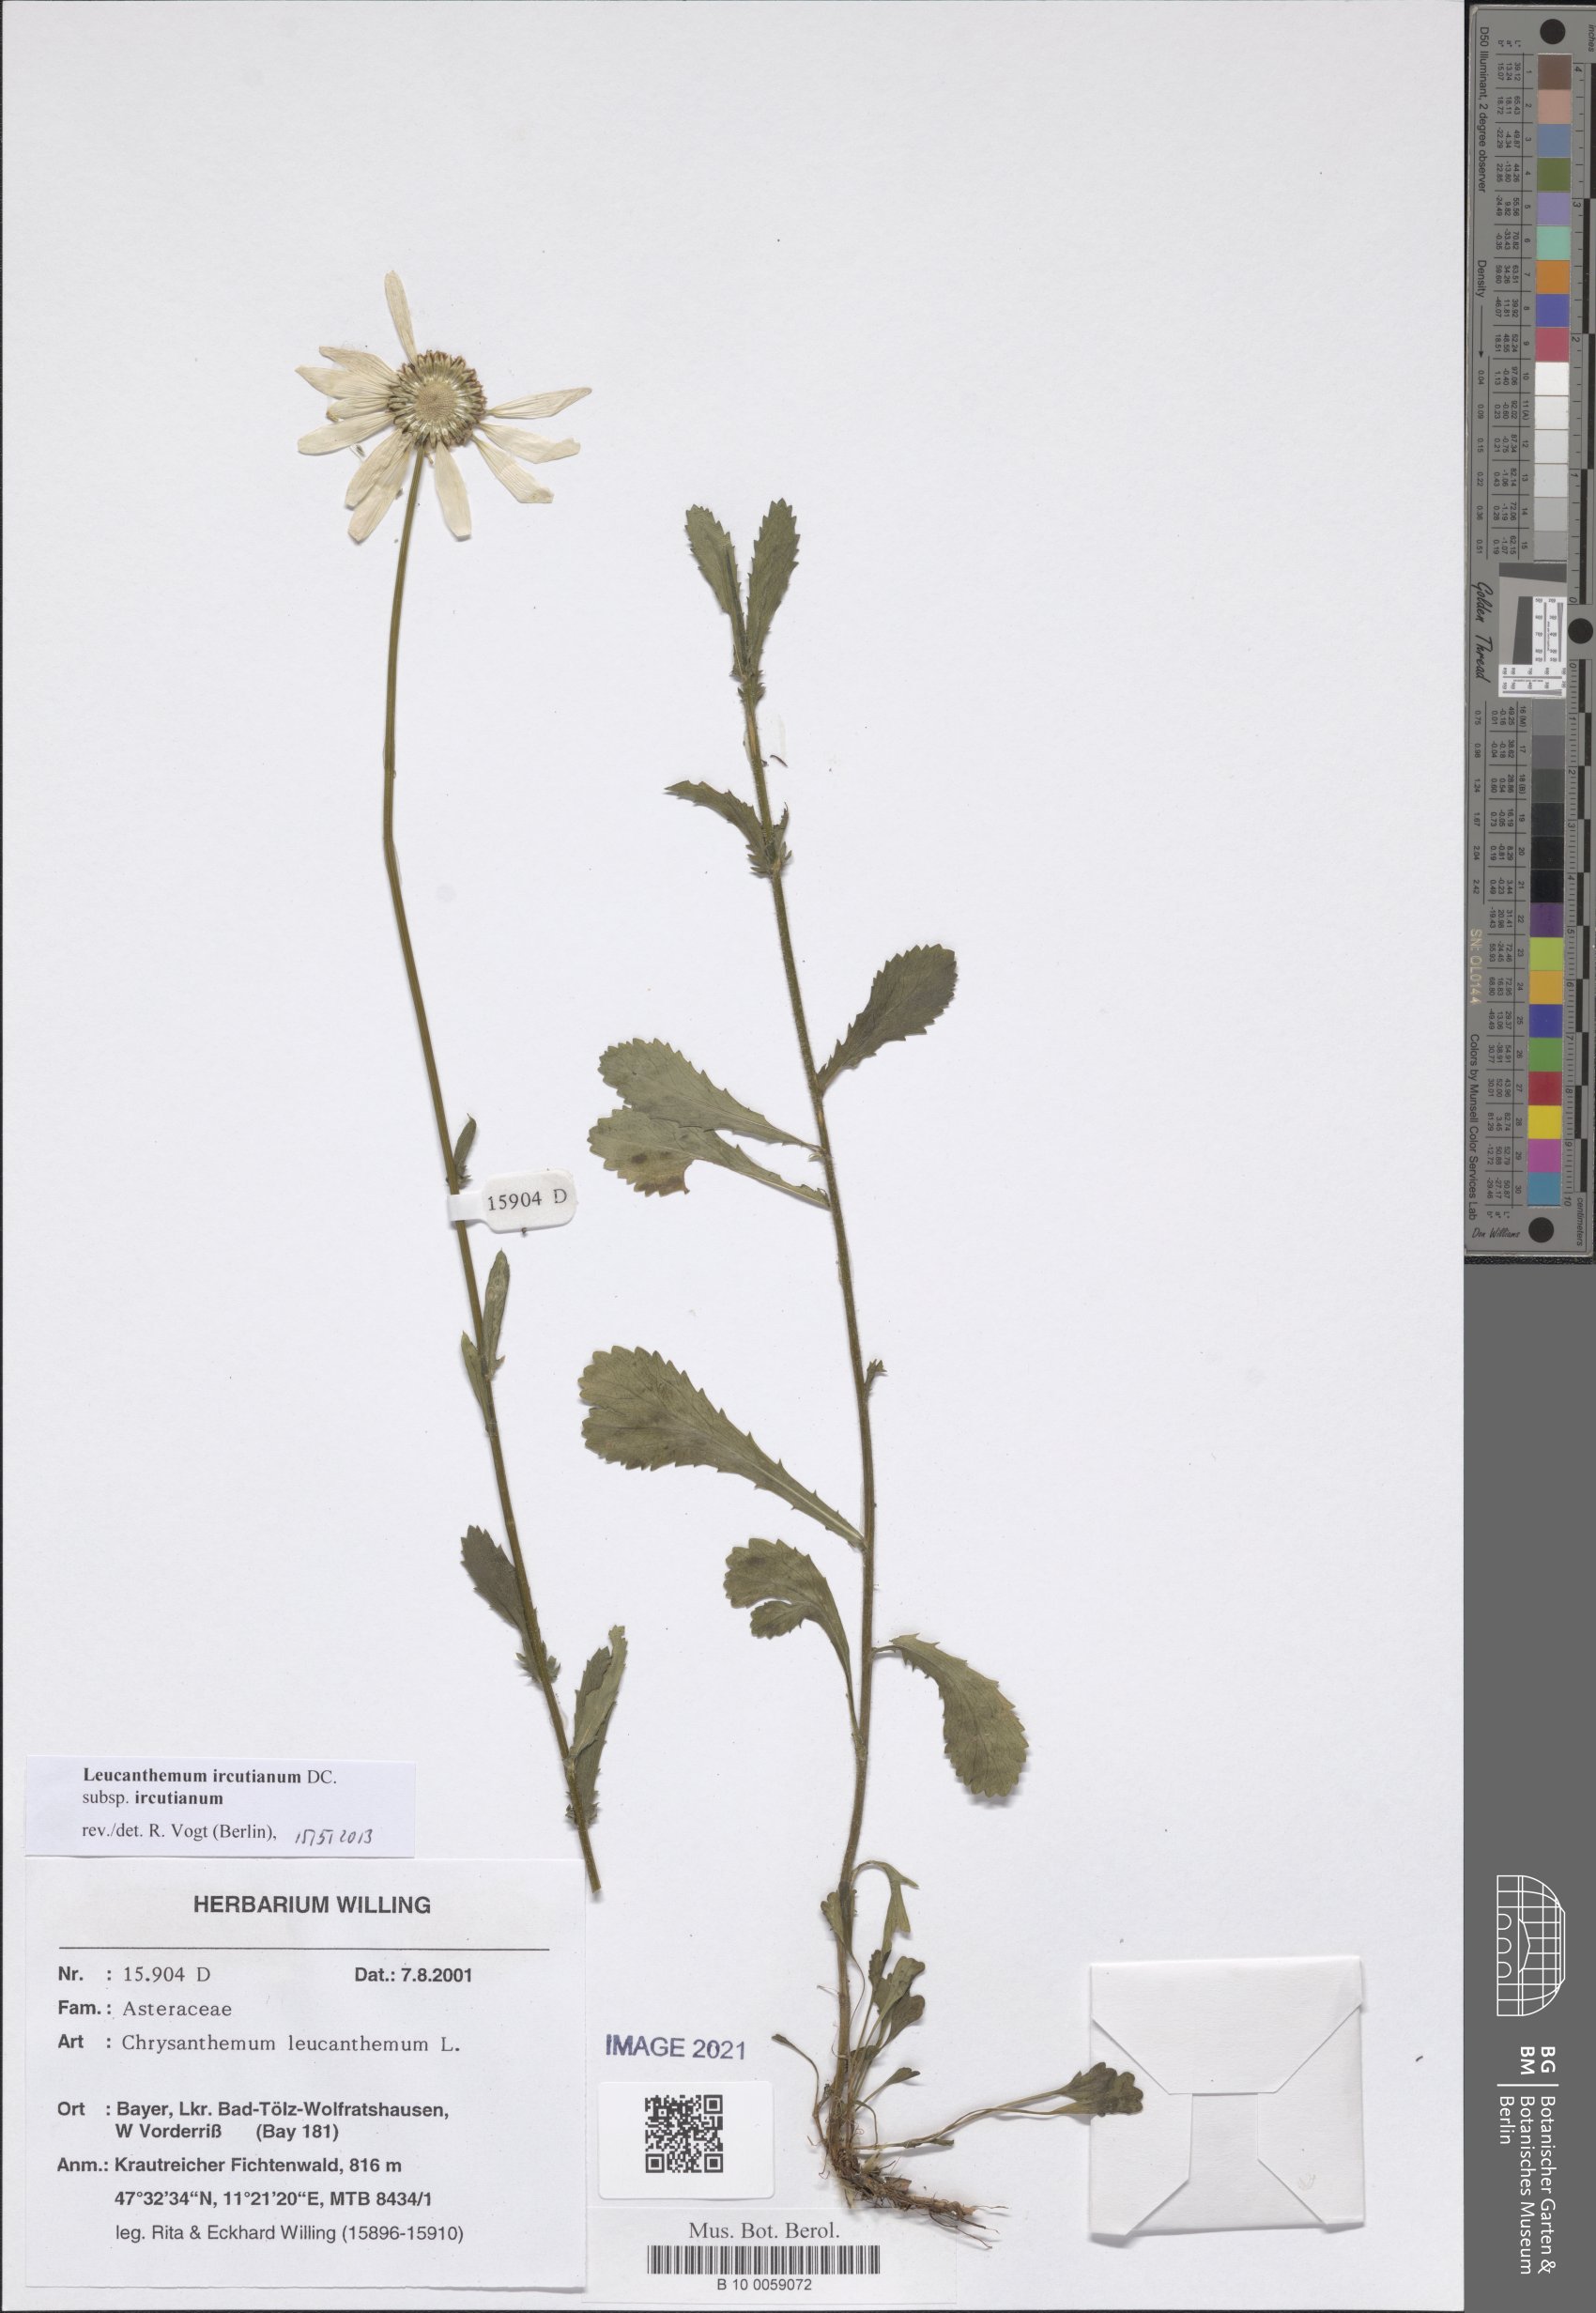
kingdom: Plantae
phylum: Tracheophyta
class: Magnoliopsida
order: Asterales
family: Asteraceae
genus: Leucanthemum
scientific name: Leucanthemum ircutianum
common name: Daisy
